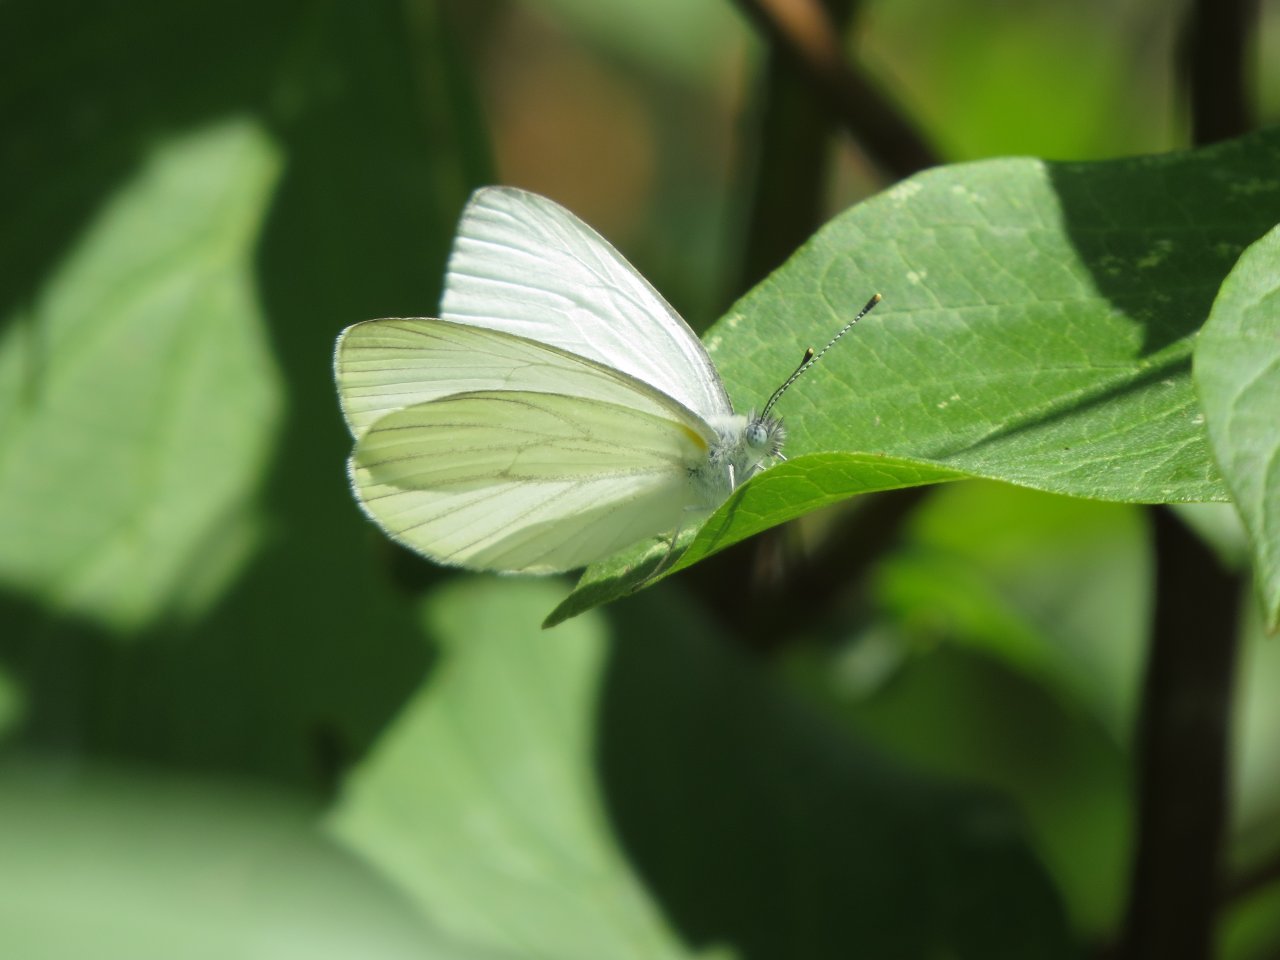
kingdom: Animalia
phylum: Arthropoda
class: Insecta
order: Lepidoptera
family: Pieridae
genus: Pieris
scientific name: Pieris oleracea
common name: Mustard White
